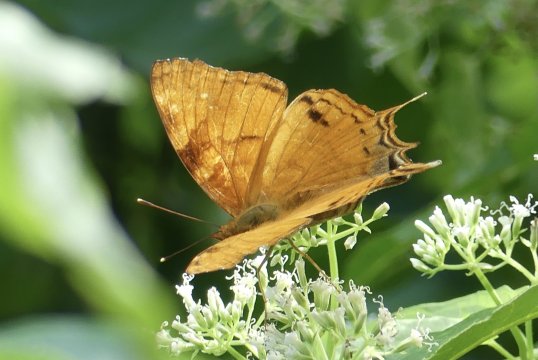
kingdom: Animalia
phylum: Arthropoda
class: Insecta
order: Lepidoptera
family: Nymphalidae
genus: Hypanartia
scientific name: Hypanartia paullus
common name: Antillean Mapwing
